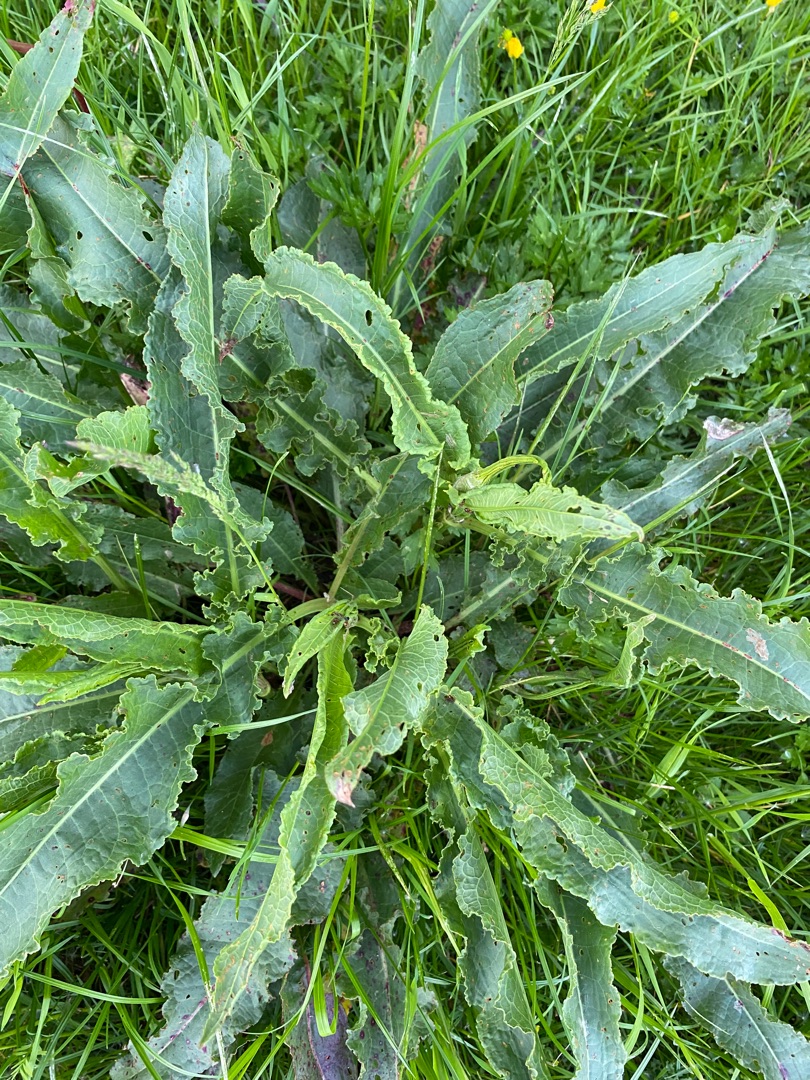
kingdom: Plantae
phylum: Tracheophyta
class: Magnoliopsida
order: Caryophyllales
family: Polygonaceae
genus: Rumex
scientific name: Rumex crispus
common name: Kruset skræppe
